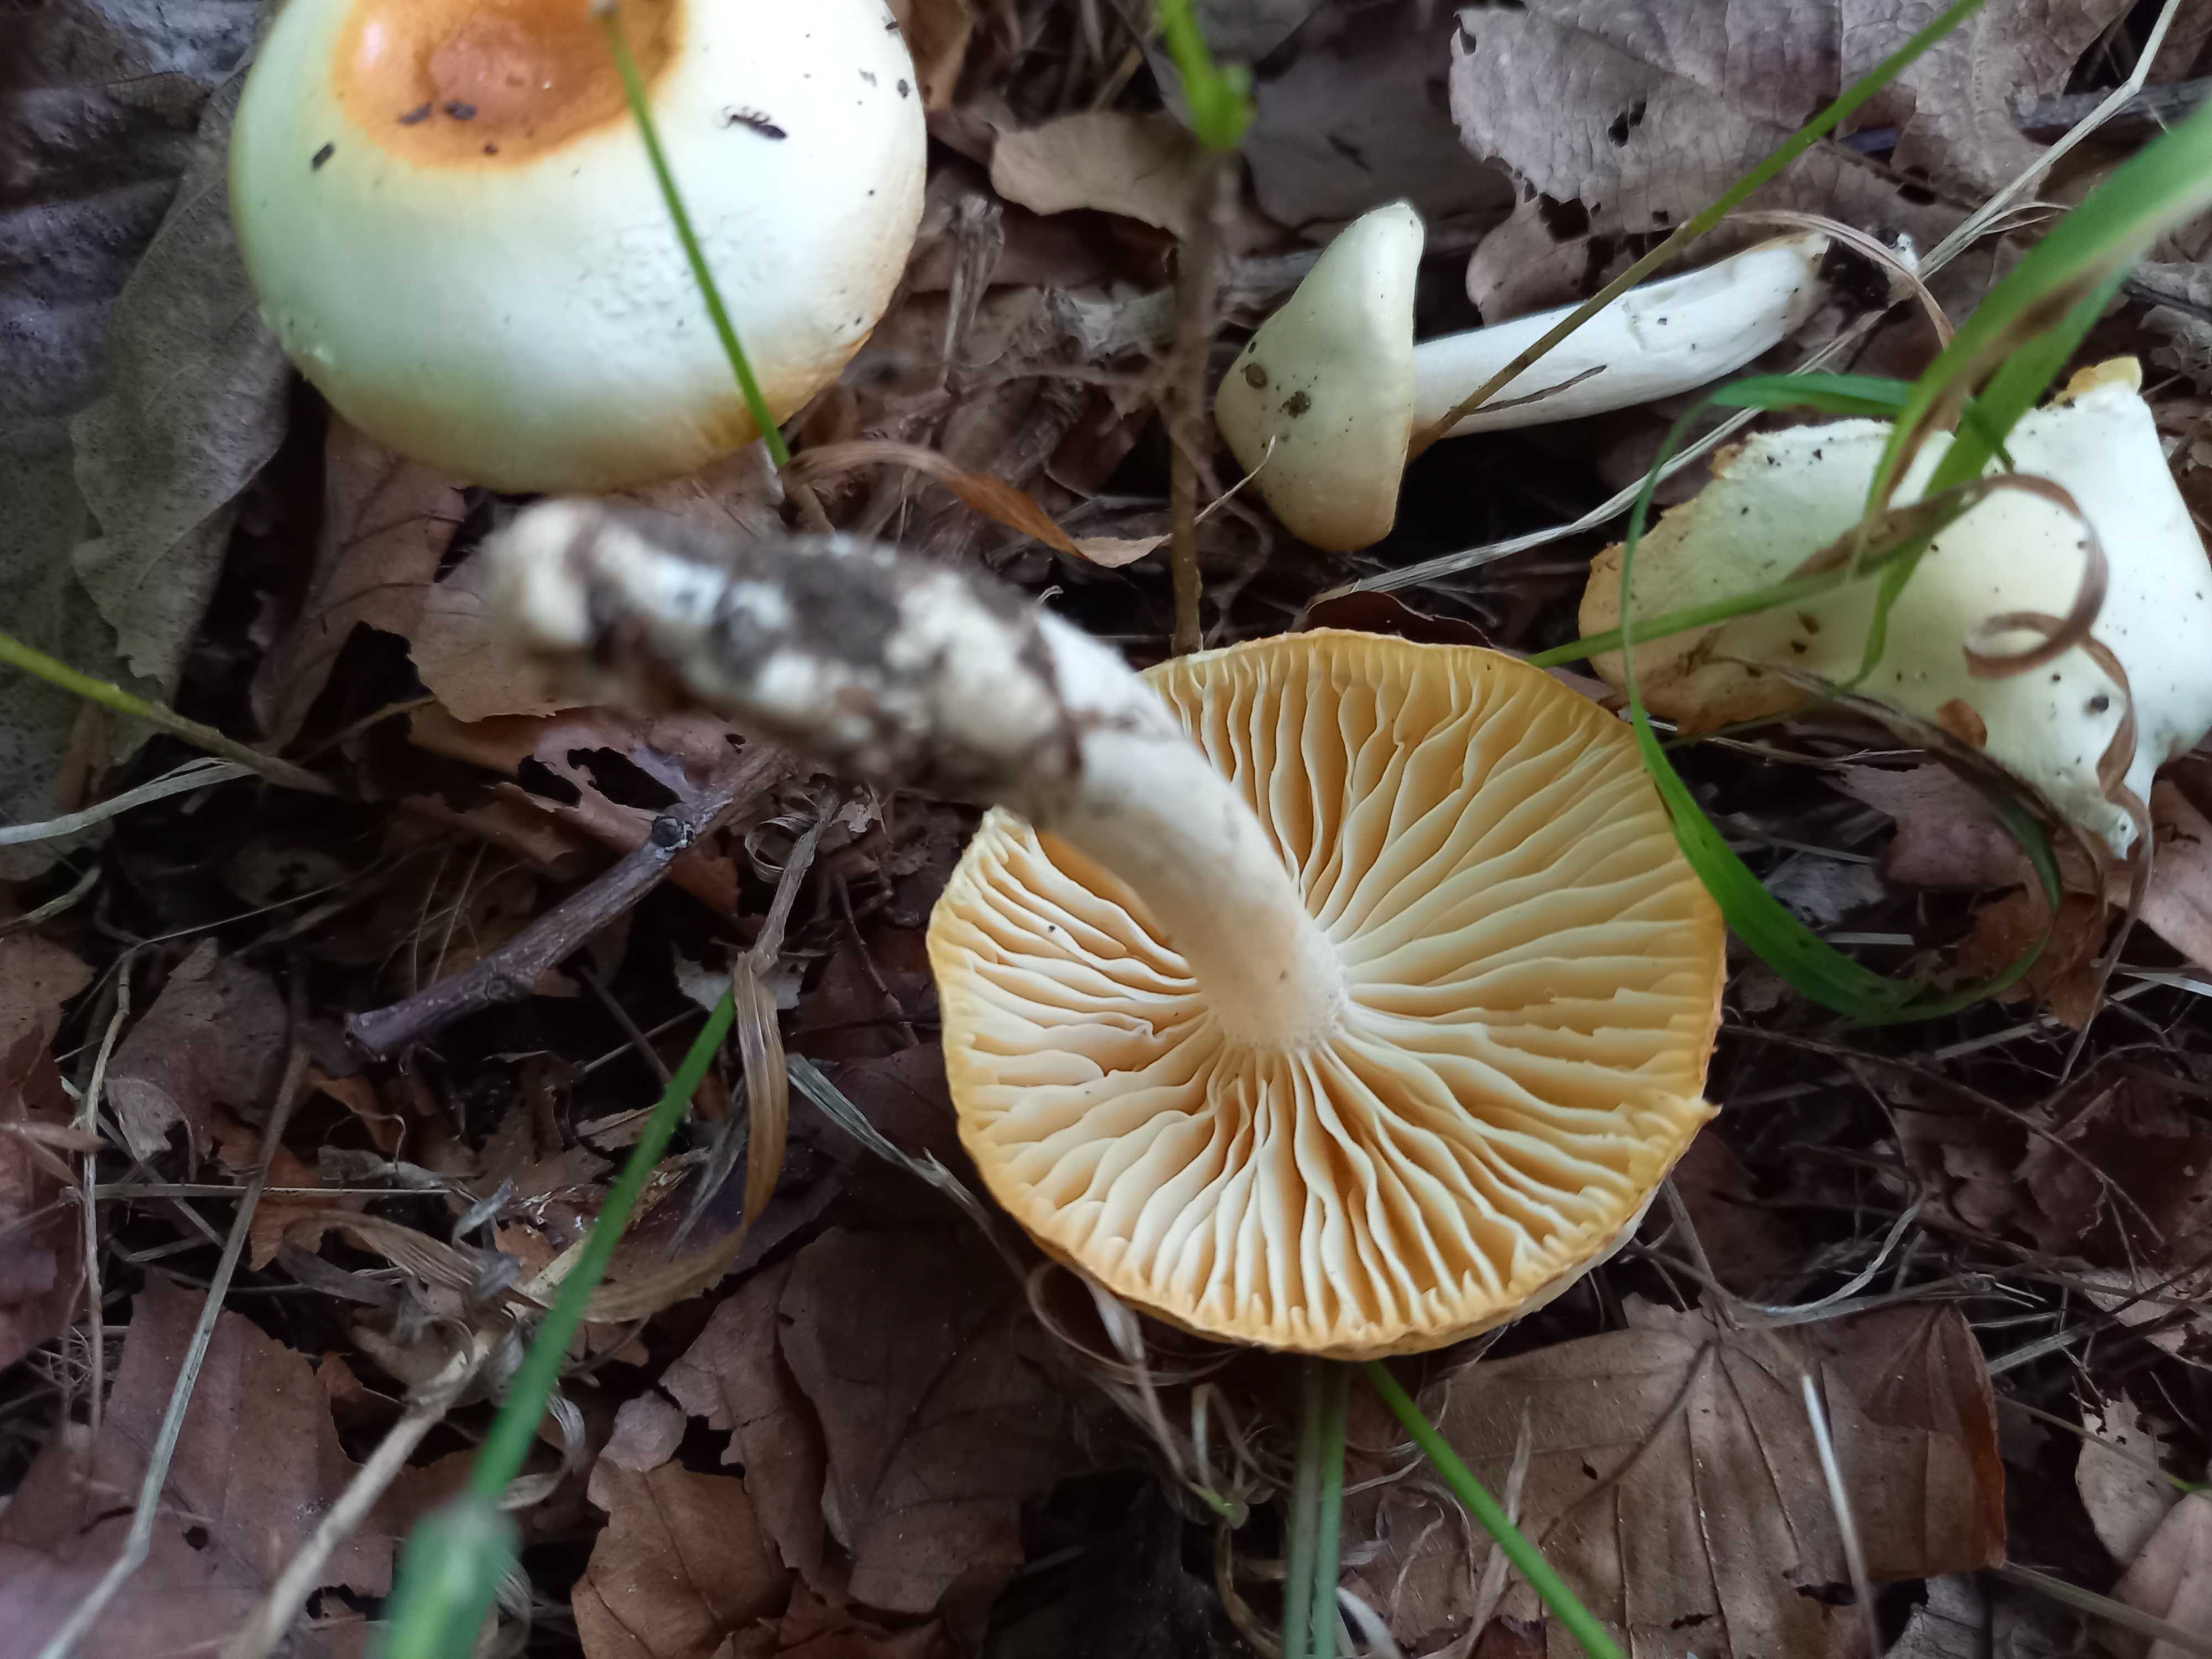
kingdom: Fungi
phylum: Basidiomycota
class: Agaricomycetes
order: Agaricales
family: Hygrophoraceae
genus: Hygrophorus
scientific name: Hygrophorus discoxanthus
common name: ildelugtende sneglehat
